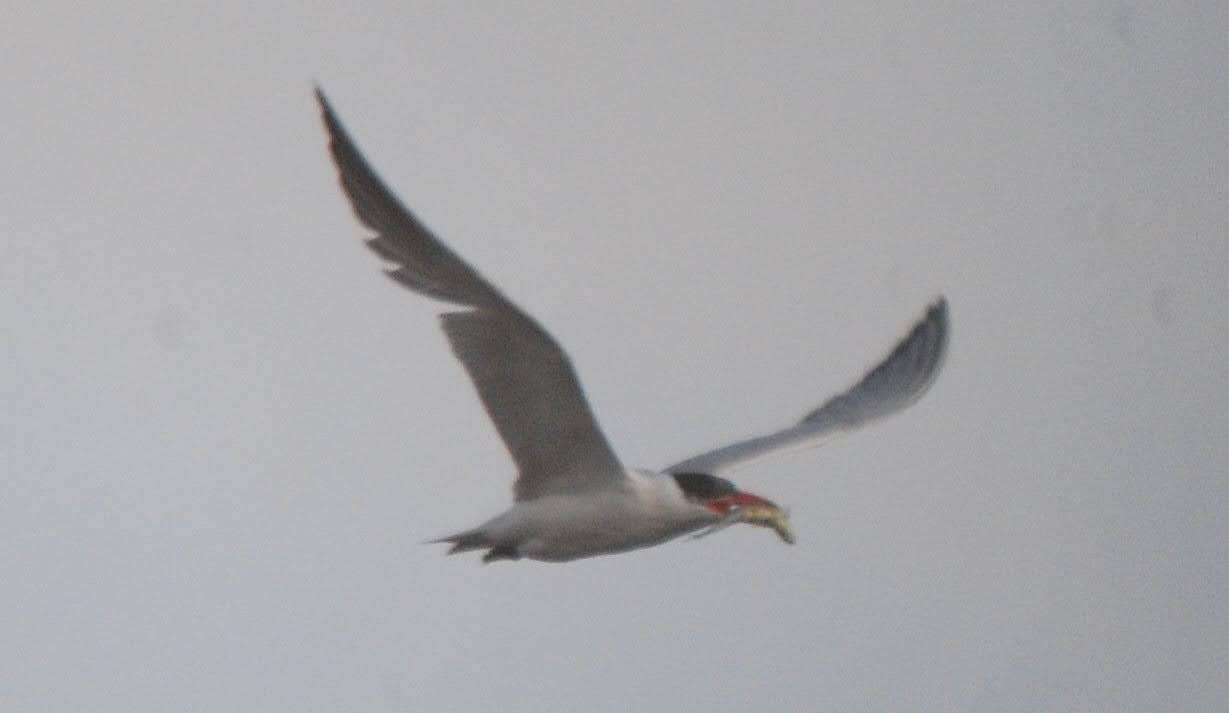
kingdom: Animalia
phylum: Chordata
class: Aves
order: Charadriiformes
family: Laridae
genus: Hydroprogne
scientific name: Hydroprogne caspia
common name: Rovterne
